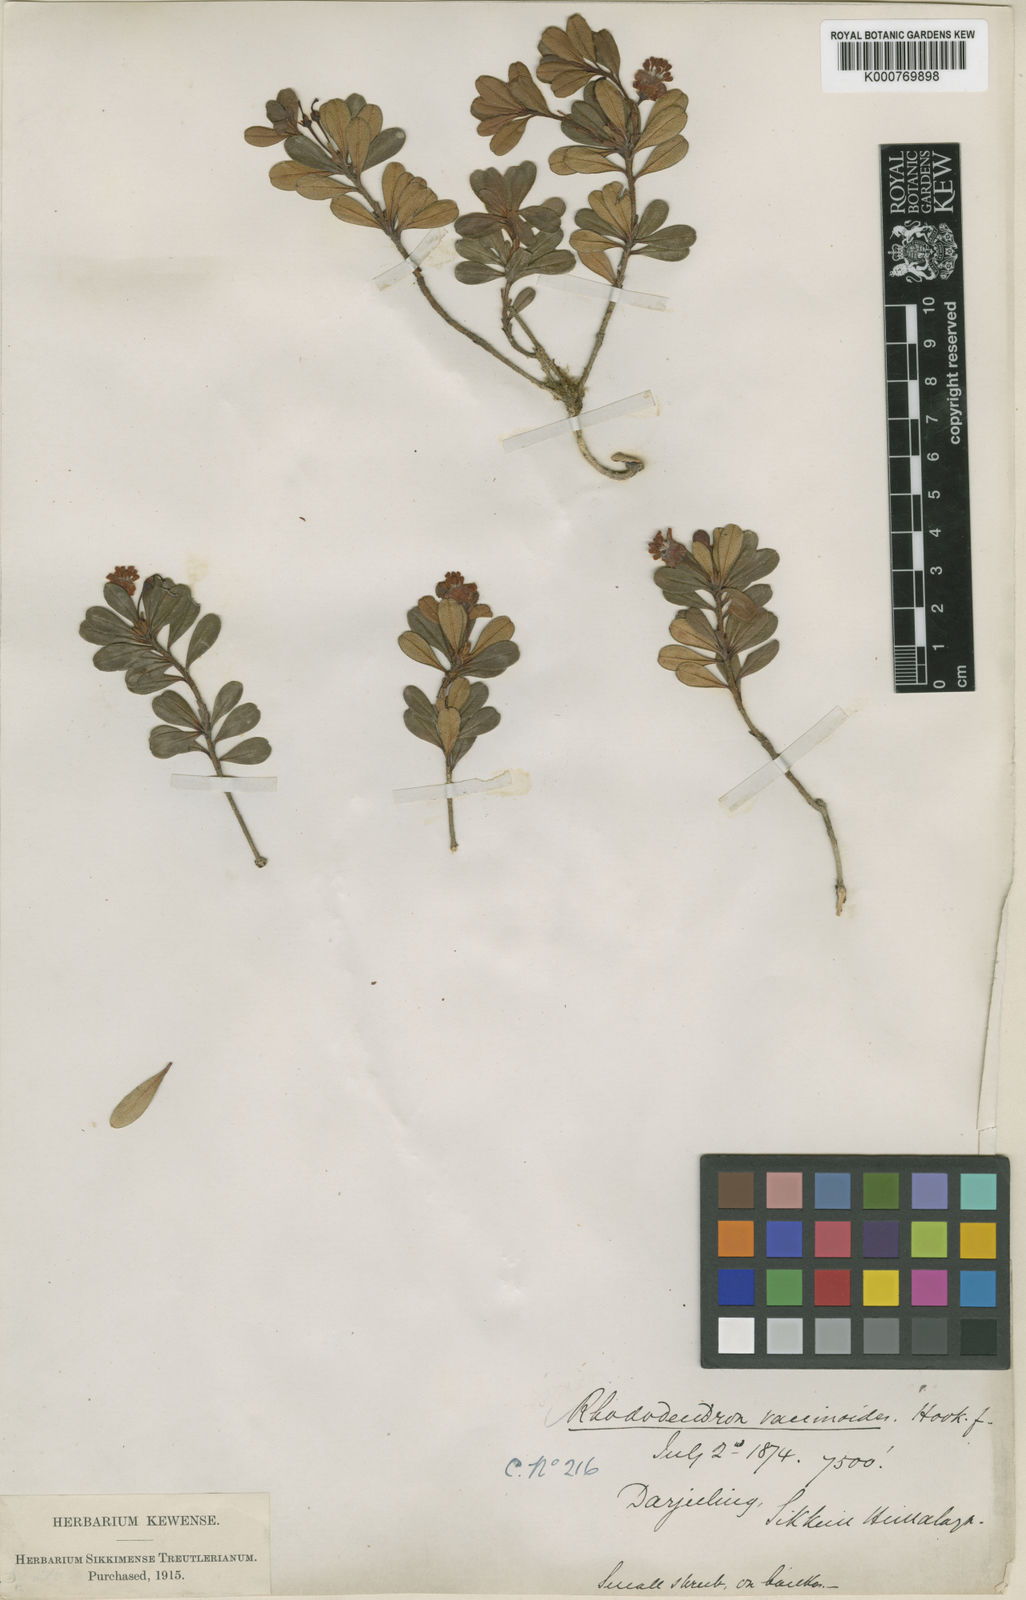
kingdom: Plantae
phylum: Tracheophyta
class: Magnoliopsida
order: Ericales
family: Ericaceae
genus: Rhododendron
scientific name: Rhododendron
